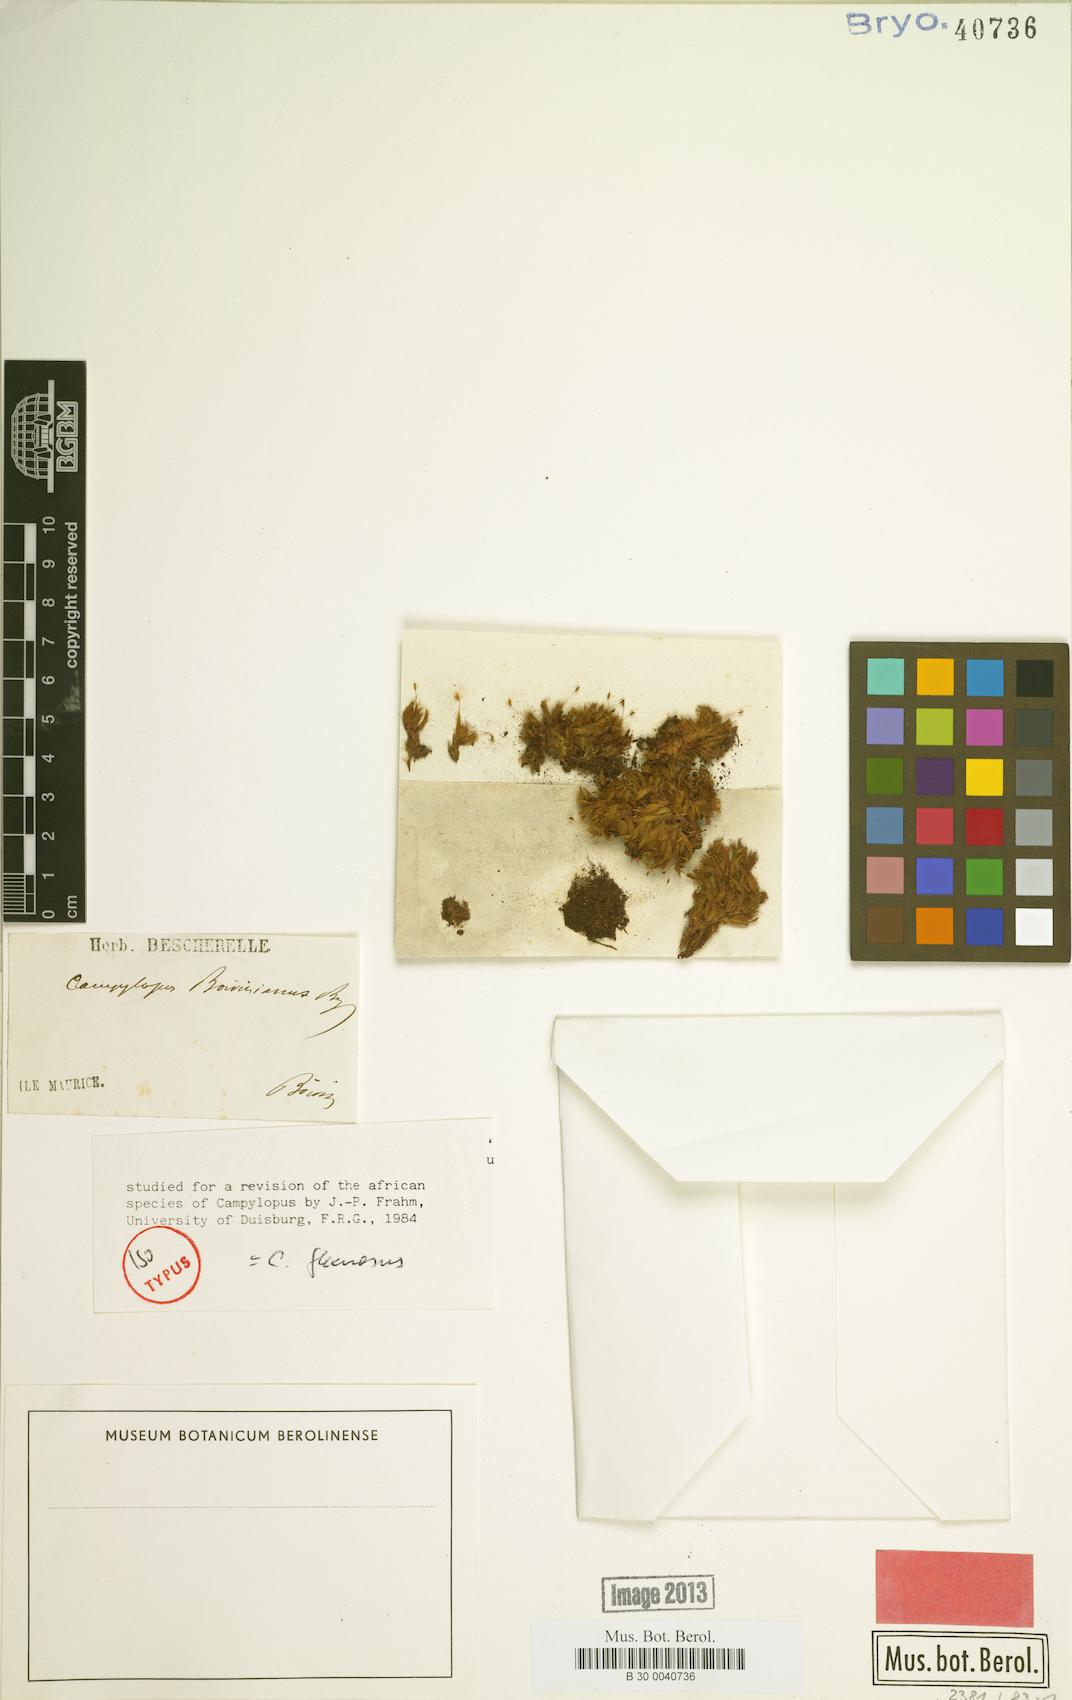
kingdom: Plantae
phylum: Bryophyta
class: Bryopsida
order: Dicranales
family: Leucobryaceae
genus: Campylopus
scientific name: Campylopus flexuosus
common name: Rusty swan-neck moss
